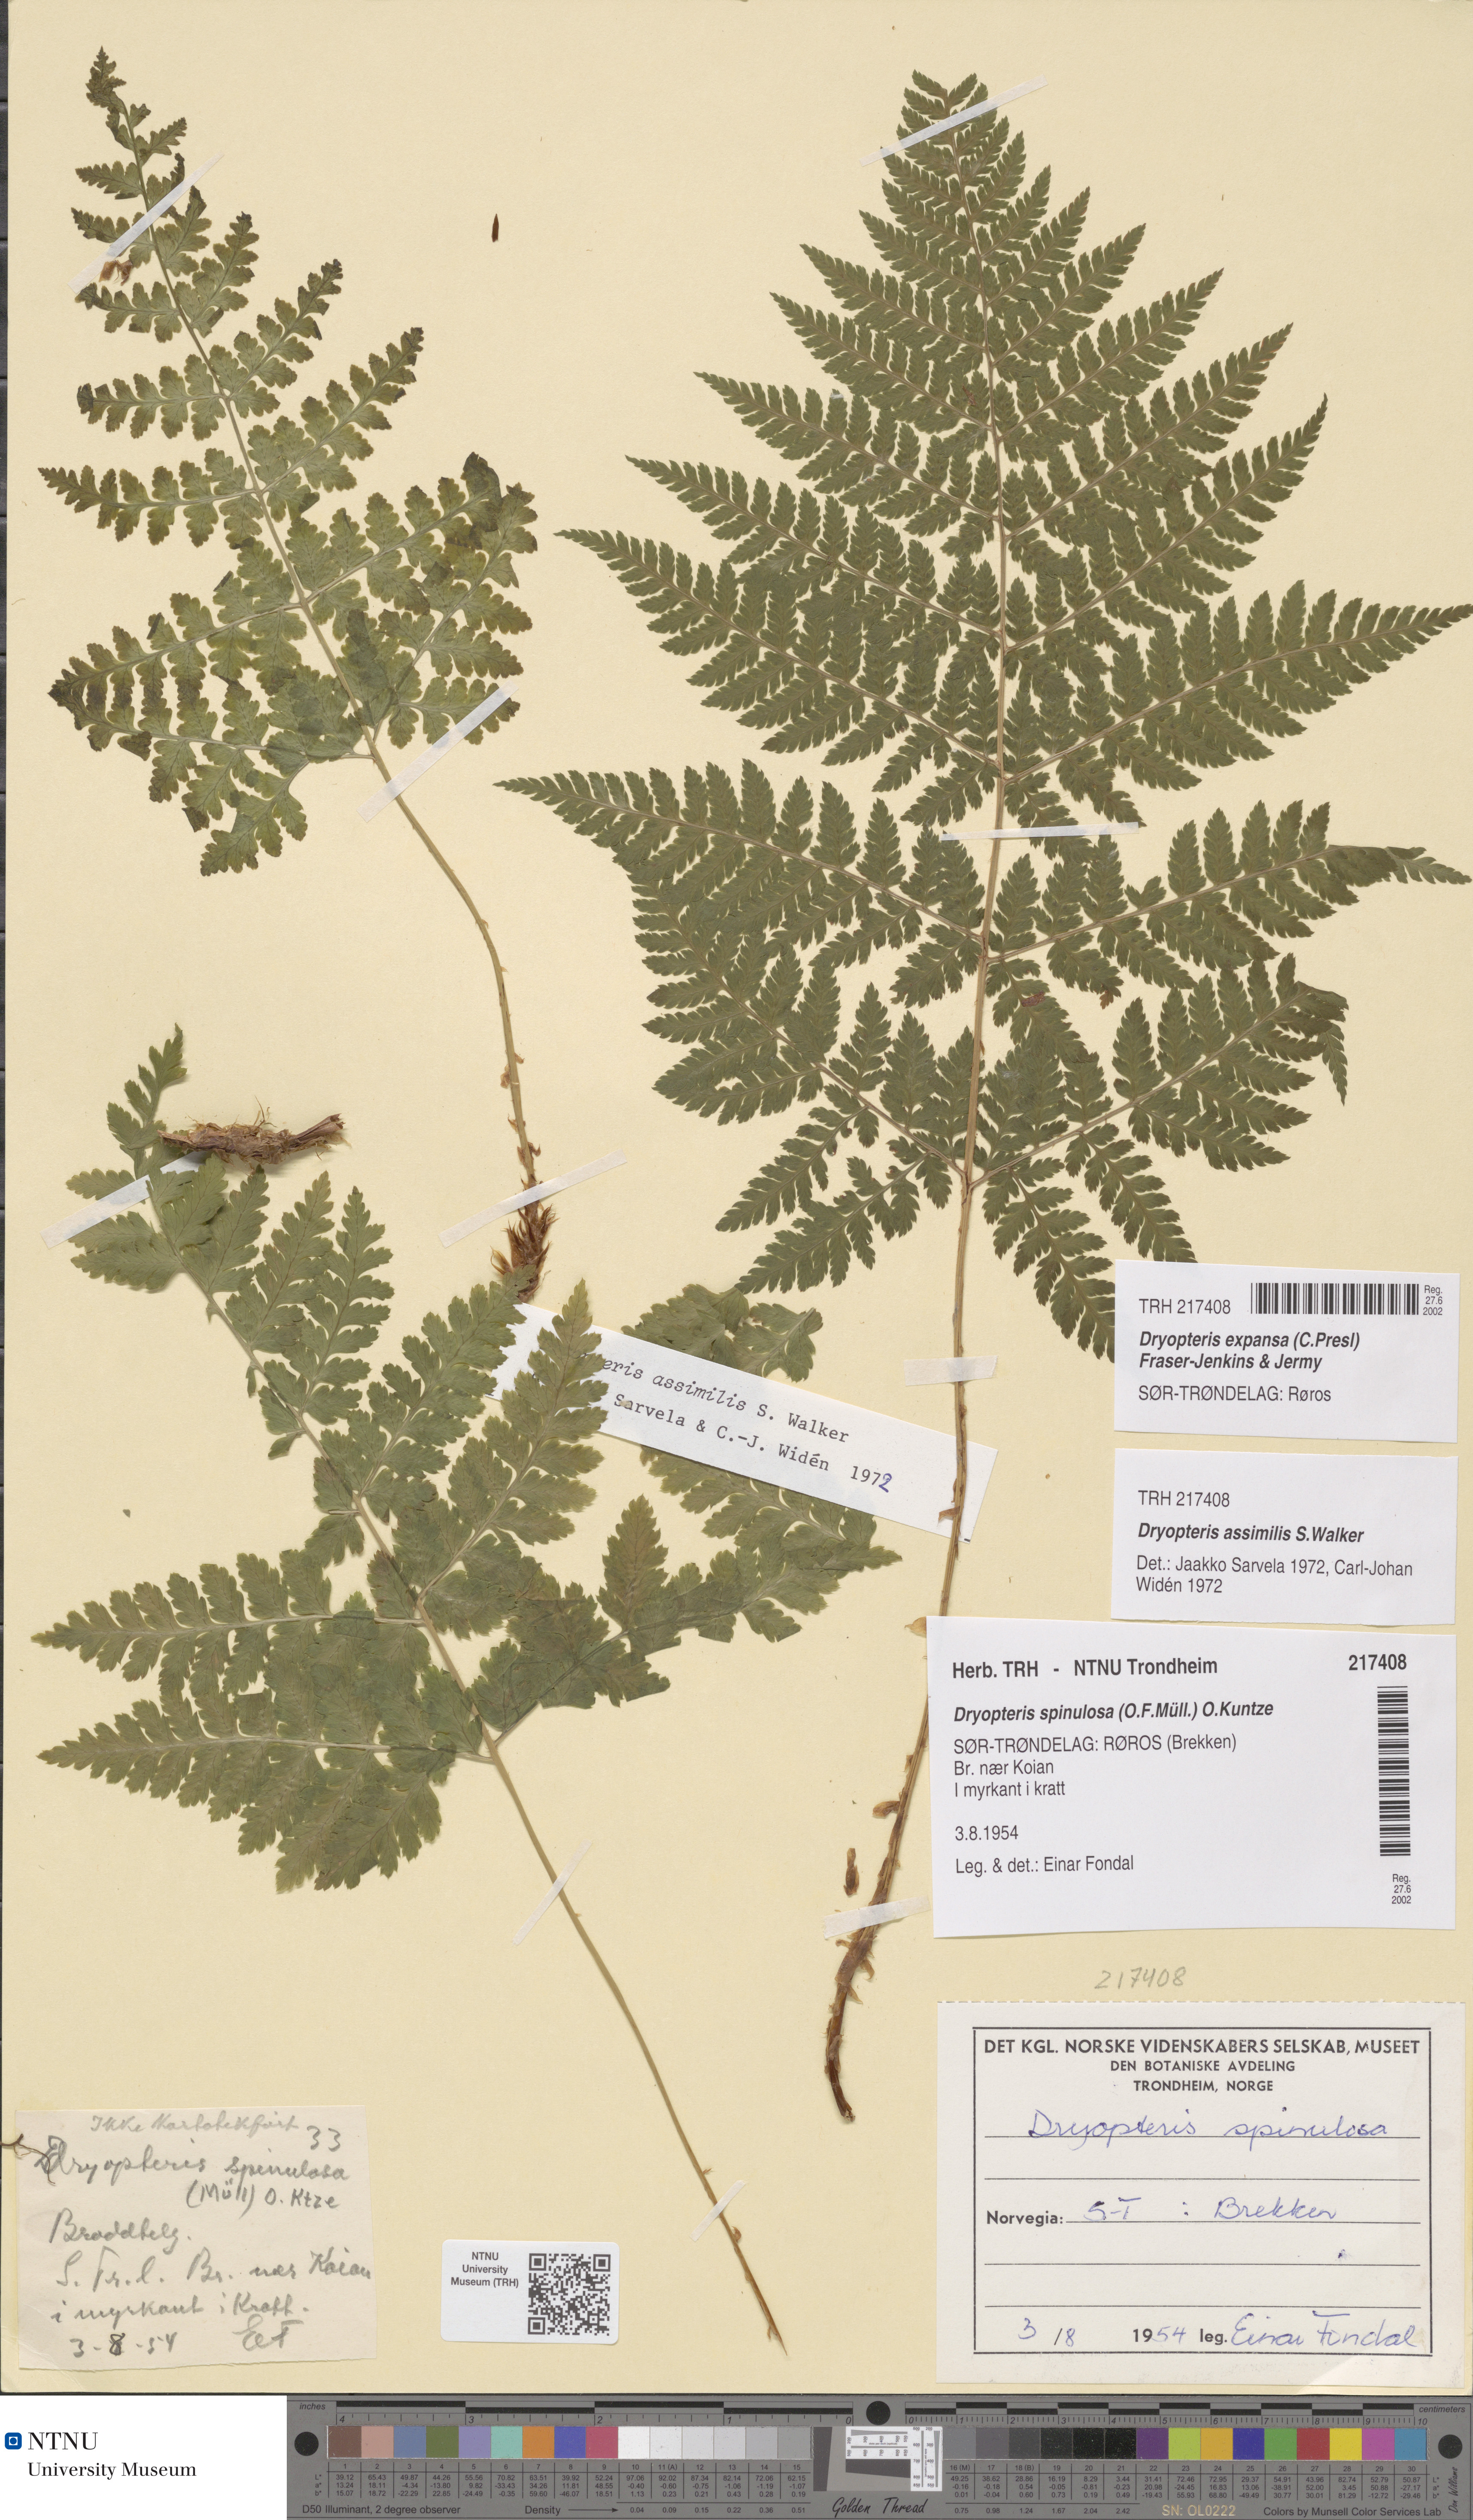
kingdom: Plantae
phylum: Tracheophyta
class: Polypodiopsida
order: Polypodiales
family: Dryopteridaceae
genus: Dryopteris
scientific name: Dryopteris expansa
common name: Northern buckler fern
